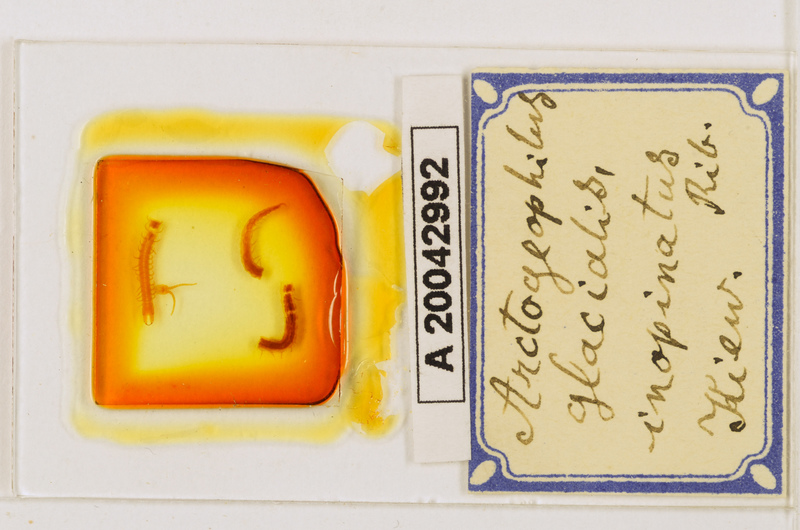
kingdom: Animalia
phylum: Arthropoda
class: Chilopoda
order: Geophilomorpha
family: Geophilidae
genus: Arctogeophilus
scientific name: Arctogeophilus glacialis
